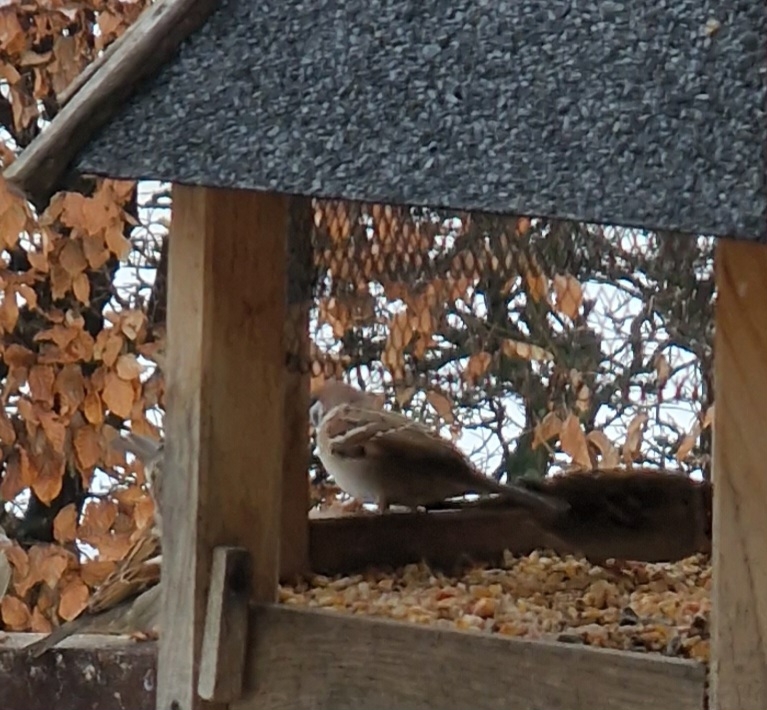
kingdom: Animalia
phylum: Chordata
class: Aves
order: Passeriformes
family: Passeridae
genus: Passer
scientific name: Passer montanus
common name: Skovspurv
